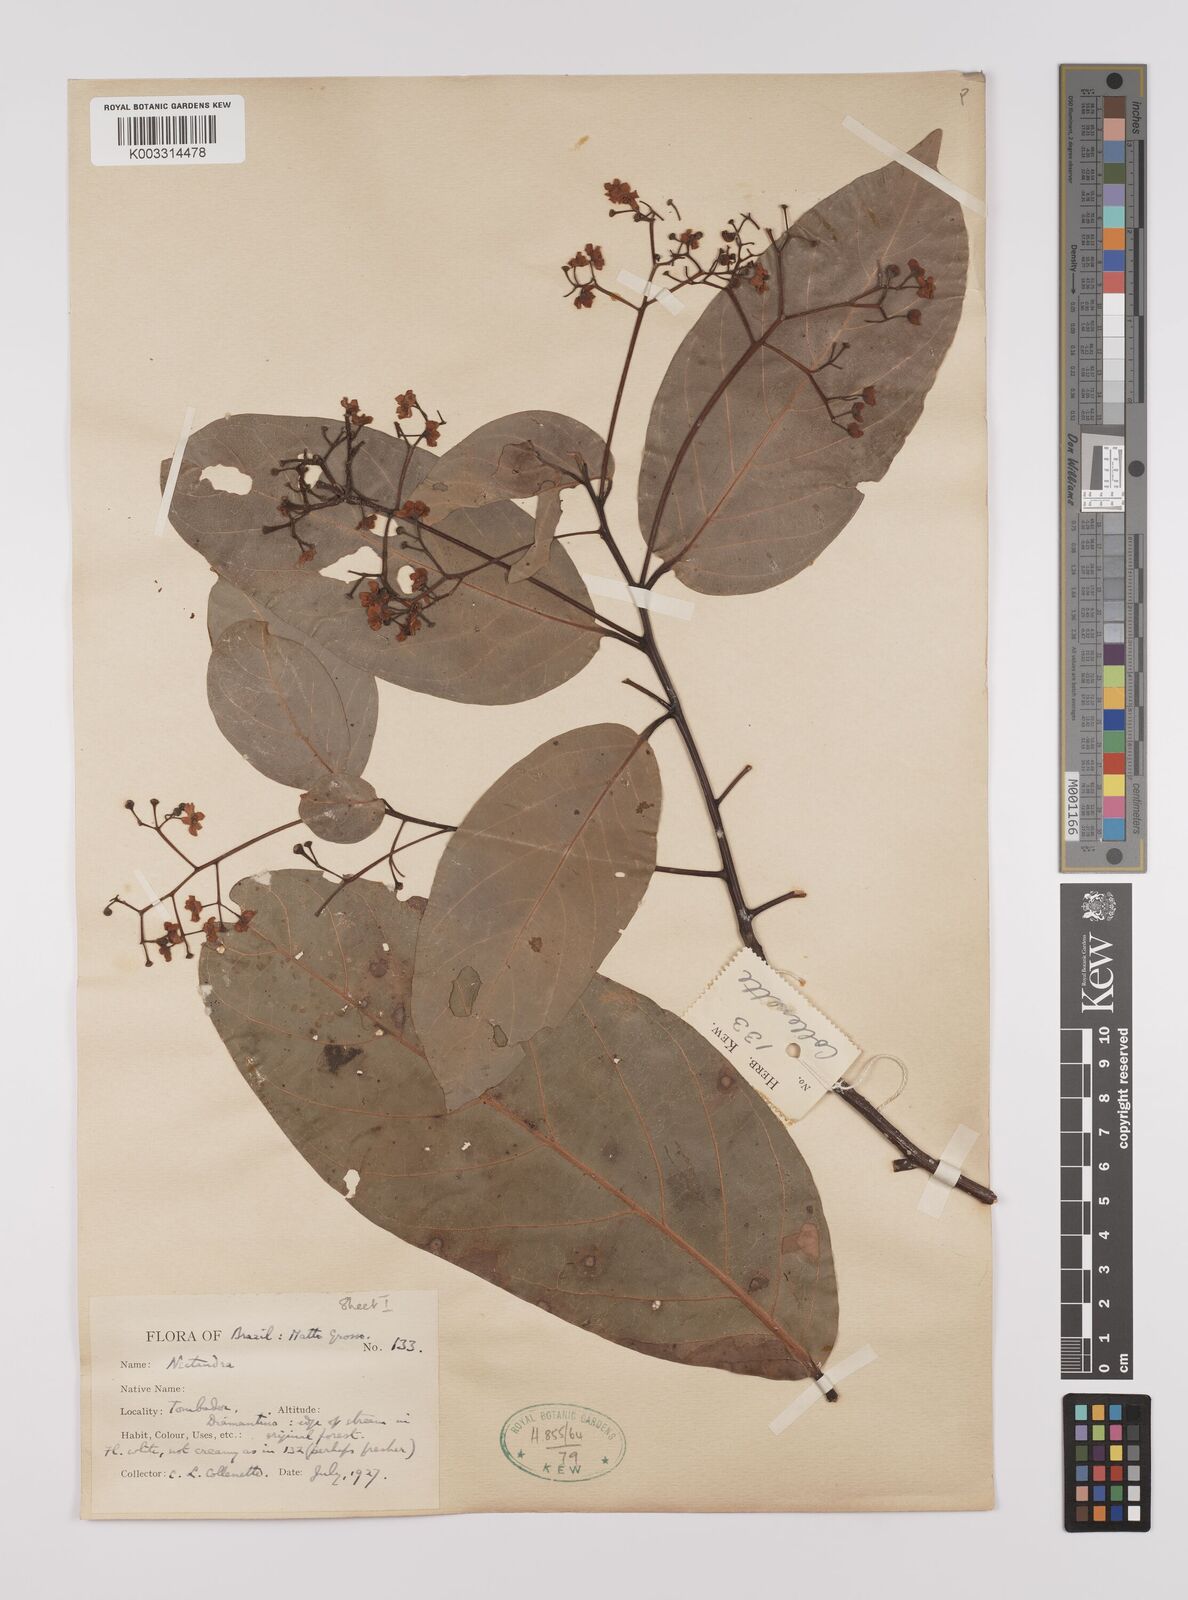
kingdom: Plantae
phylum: Tracheophyta
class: Magnoliopsida
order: Laurales
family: Lauraceae
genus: Nectandra
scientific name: Nectandra leucantha
